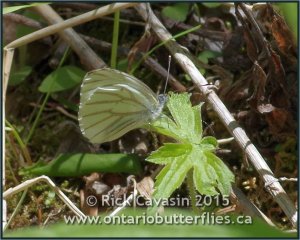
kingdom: Animalia
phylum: Arthropoda
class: Insecta
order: Lepidoptera
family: Pieridae
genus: Pieris
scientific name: Pieris oleracea
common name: Mustard White
